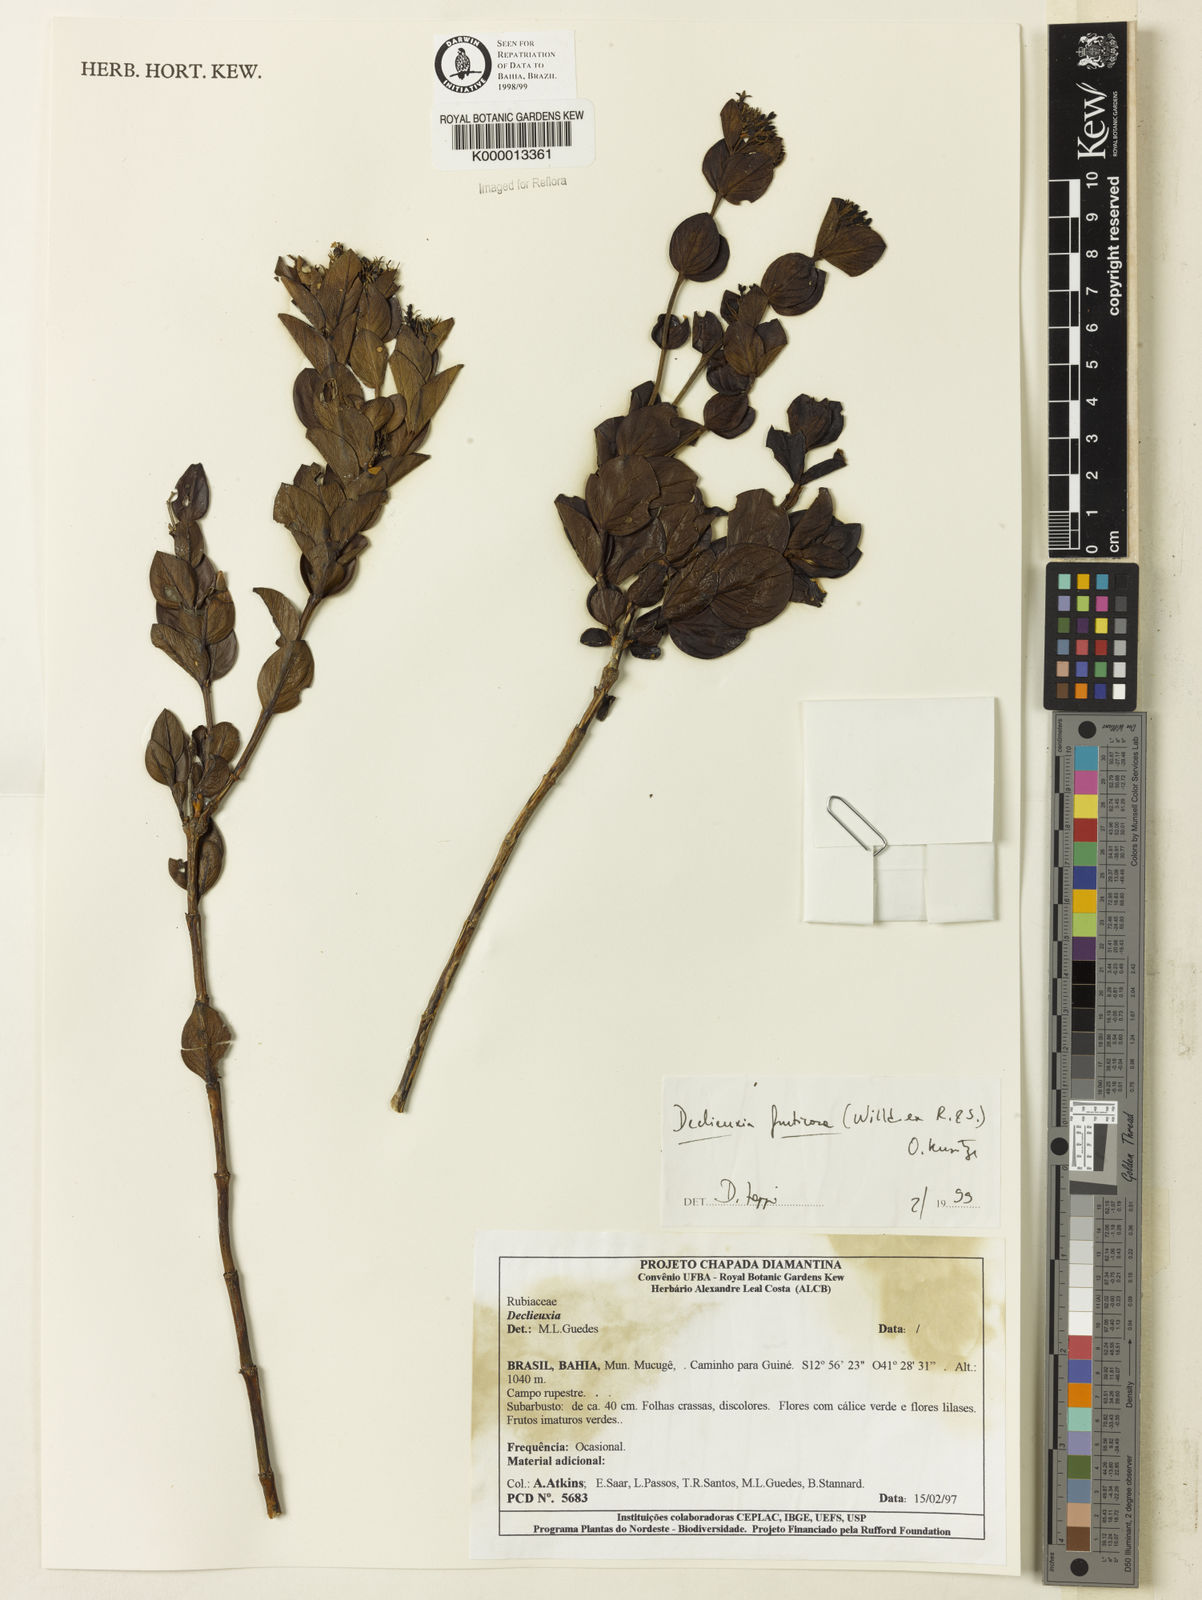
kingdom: Plantae
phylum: Tracheophyta
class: Magnoliopsida
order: Gentianales
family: Rubiaceae
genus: Declieuxia
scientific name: Declieuxia fruticosa
